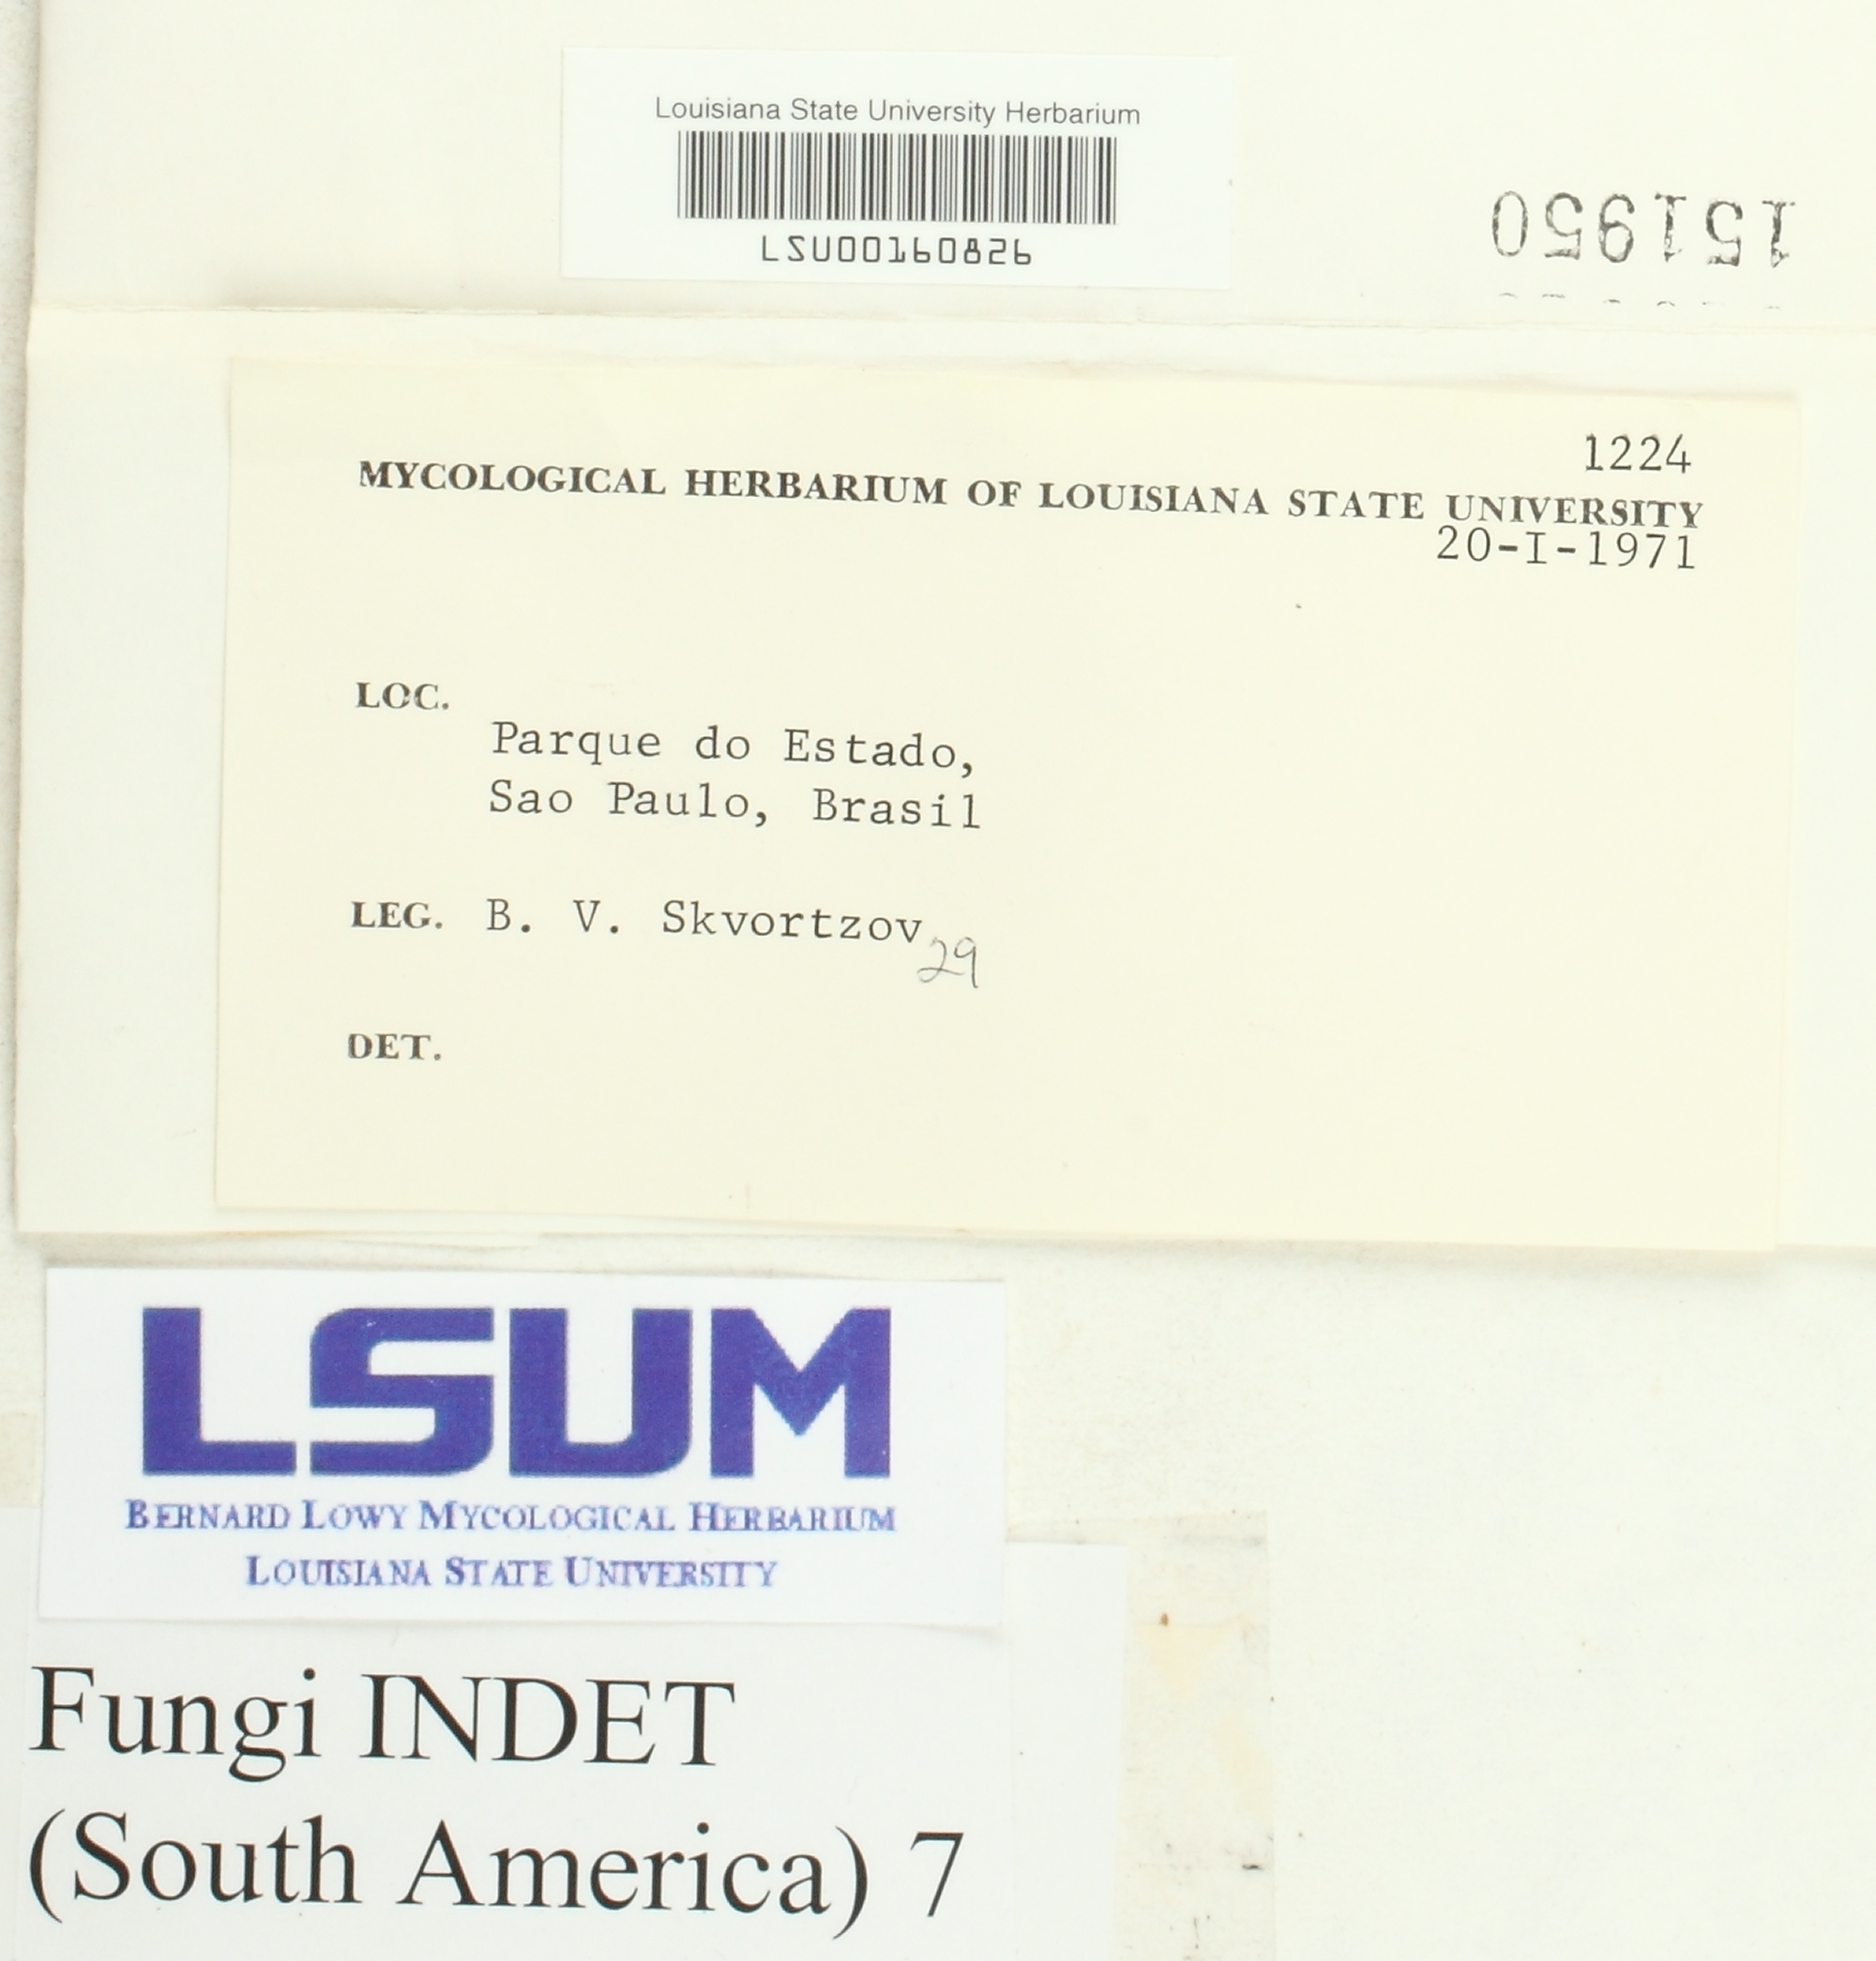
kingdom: Fungi
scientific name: Fungi
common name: Fungi
